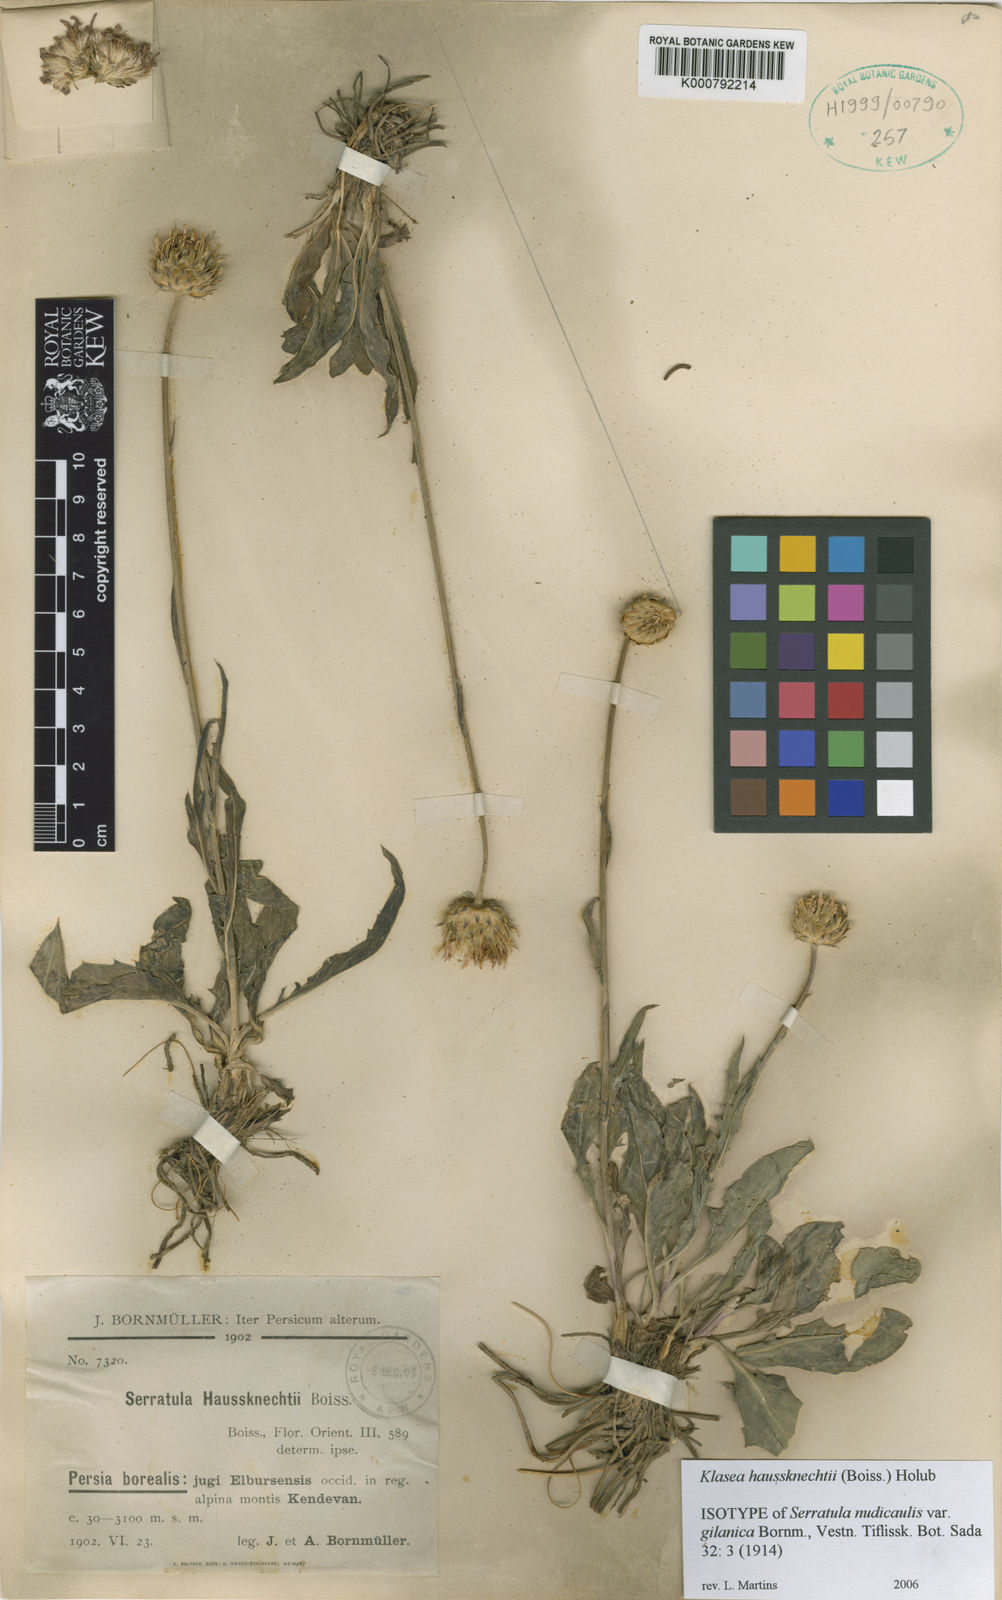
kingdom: Plantae
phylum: Tracheophyta
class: Magnoliopsida
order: Asterales
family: Asteraceae
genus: Klasea
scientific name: Klasea haussknechtii
